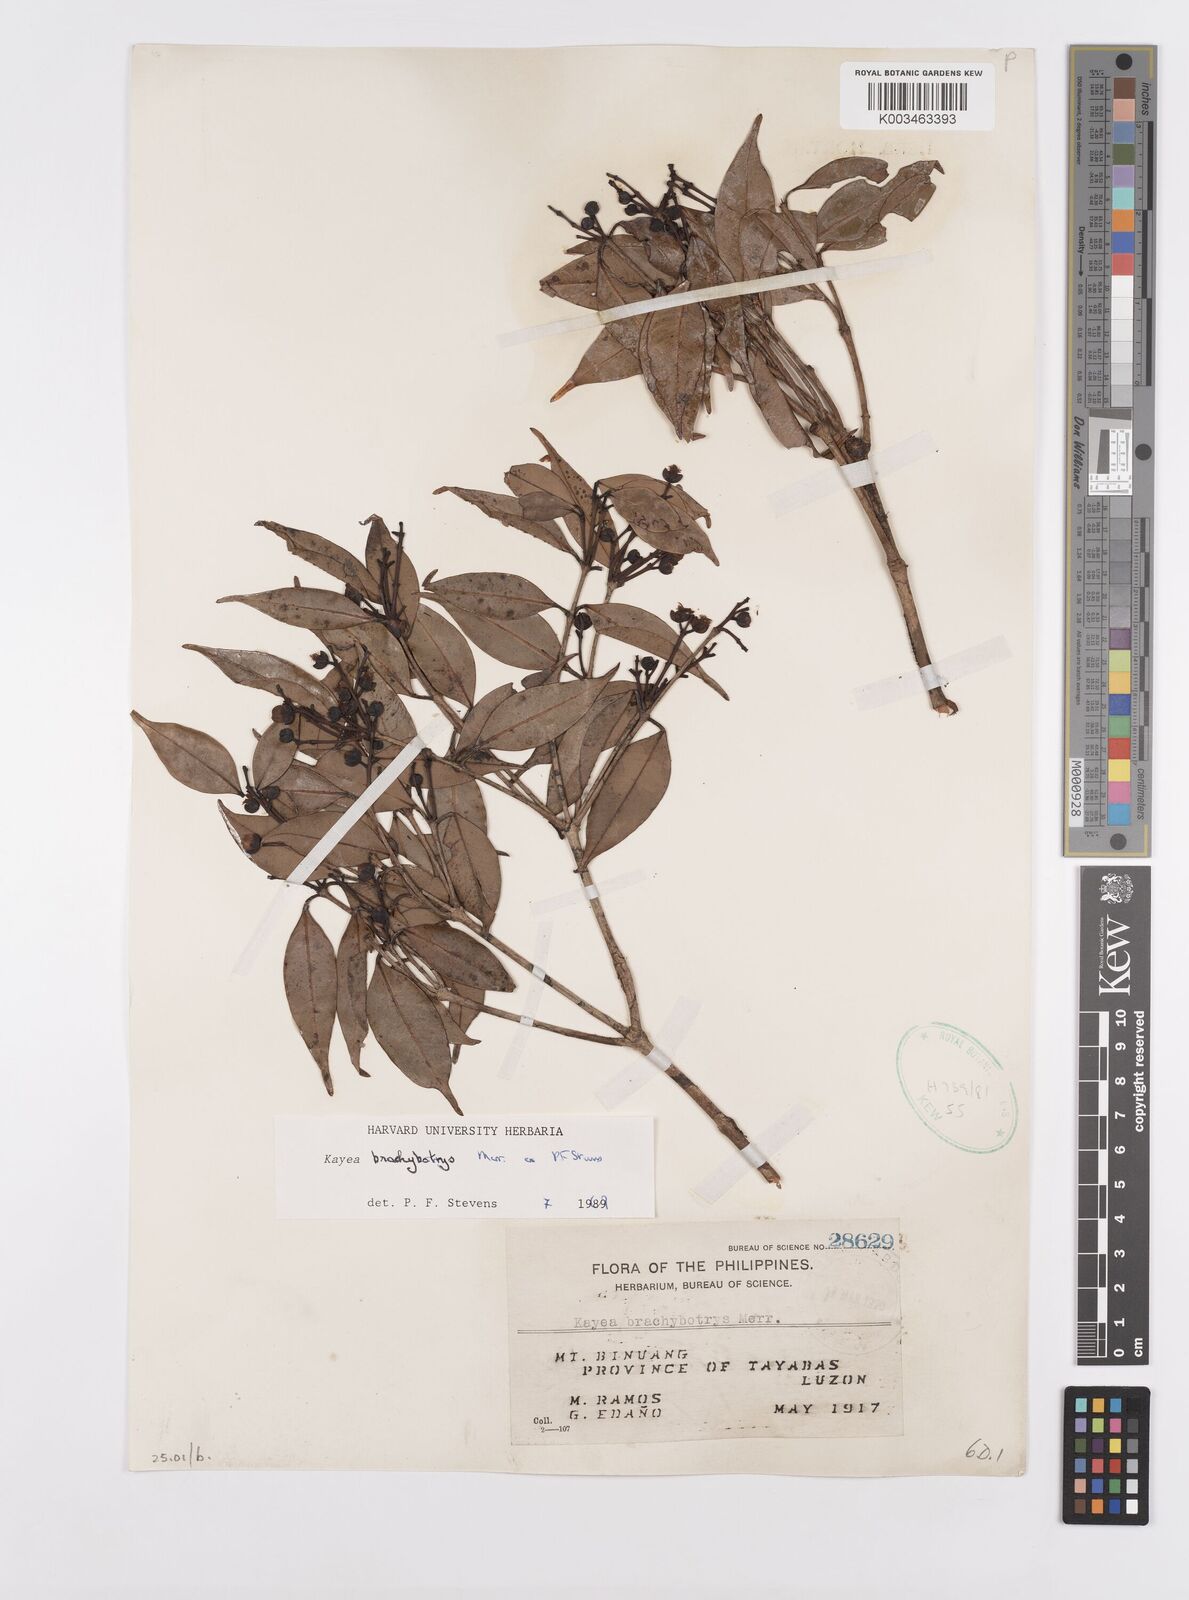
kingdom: Plantae
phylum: Tracheophyta
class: Magnoliopsida
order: Malpighiales
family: Calophyllaceae
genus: Kayea
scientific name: Kayea
